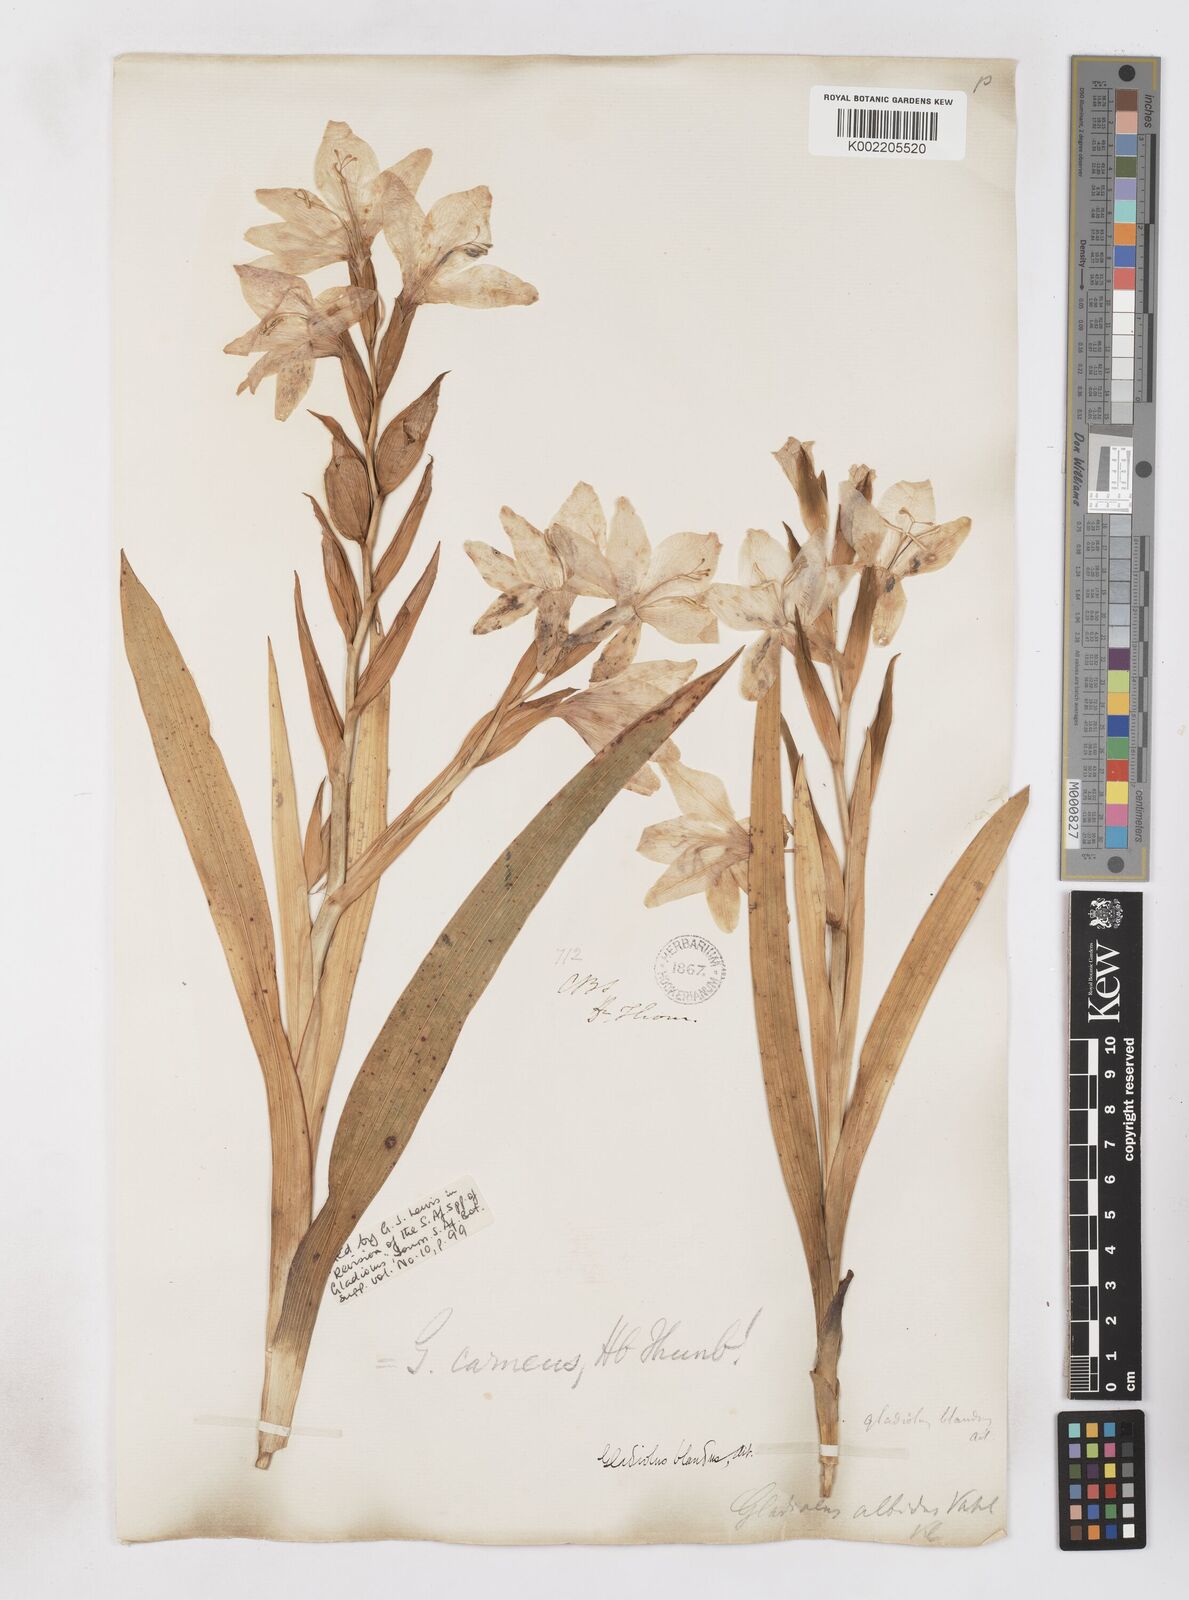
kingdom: Plantae
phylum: Tracheophyta
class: Liliopsida
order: Asparagales
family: Iridaceae
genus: Gladiolus
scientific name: Gladiolus carneus
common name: Painted-lady
